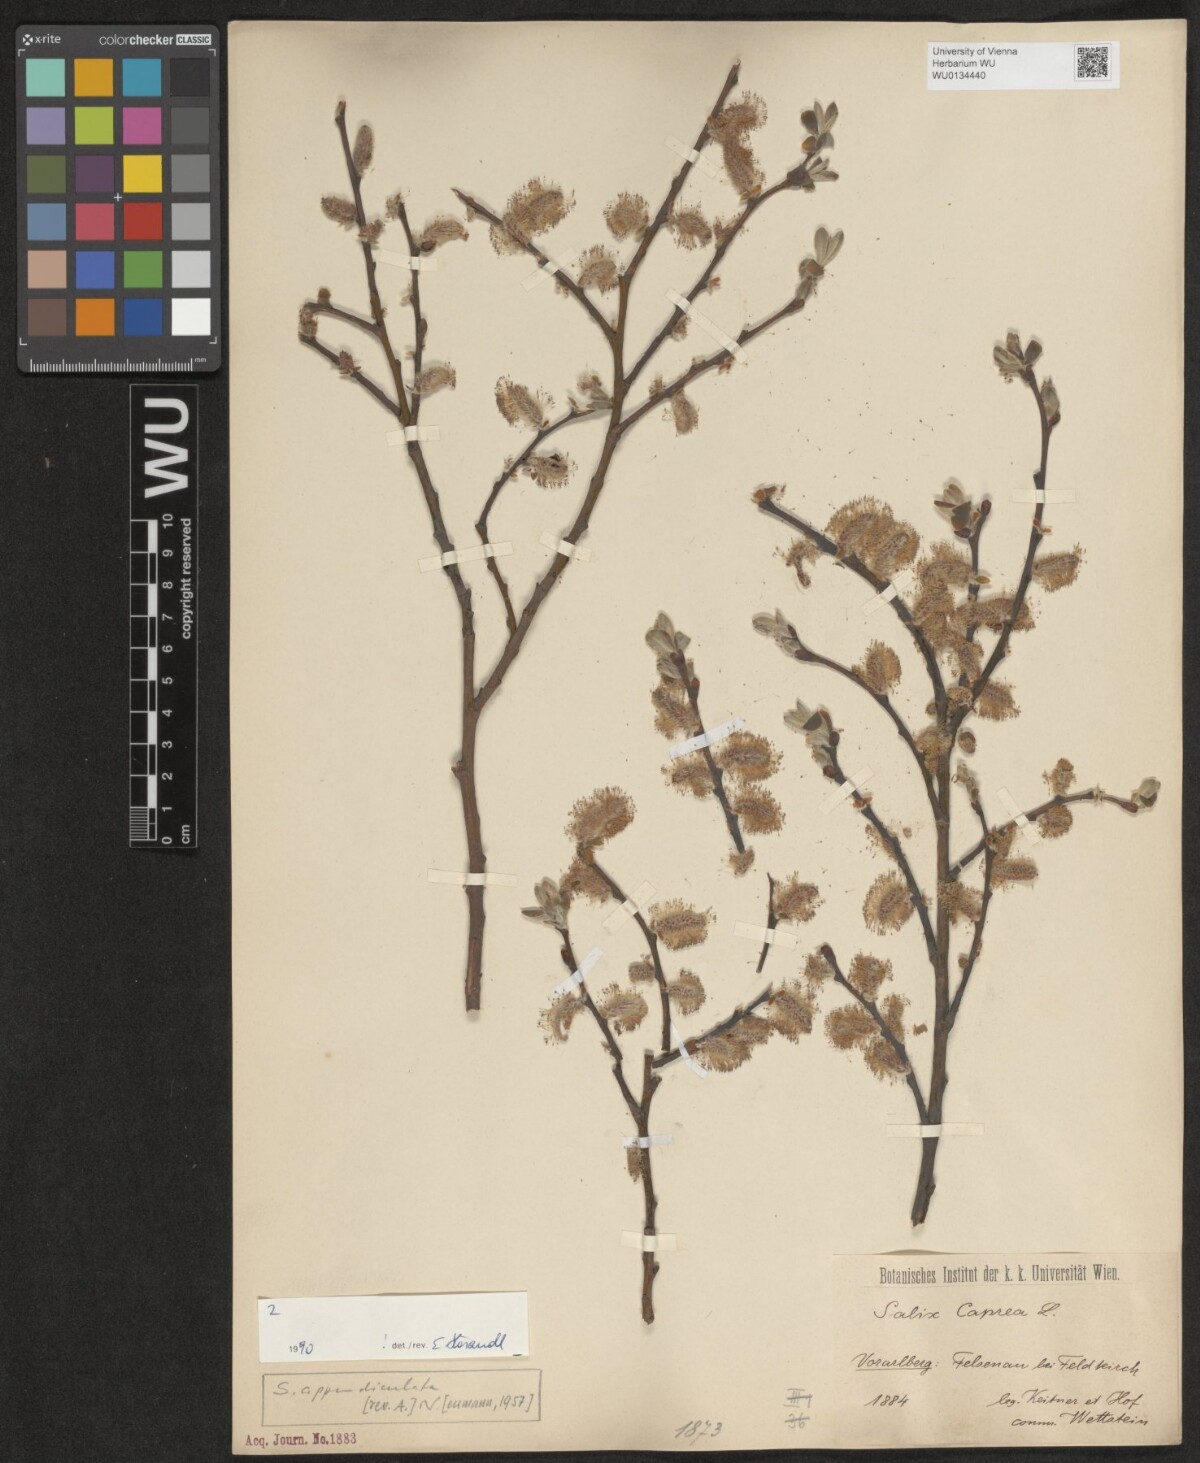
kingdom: Plantae
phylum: Tracheophyta
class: Magnoliopsida
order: Malpighiales
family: Salicaceae
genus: Salix
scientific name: Salix appendiculata
